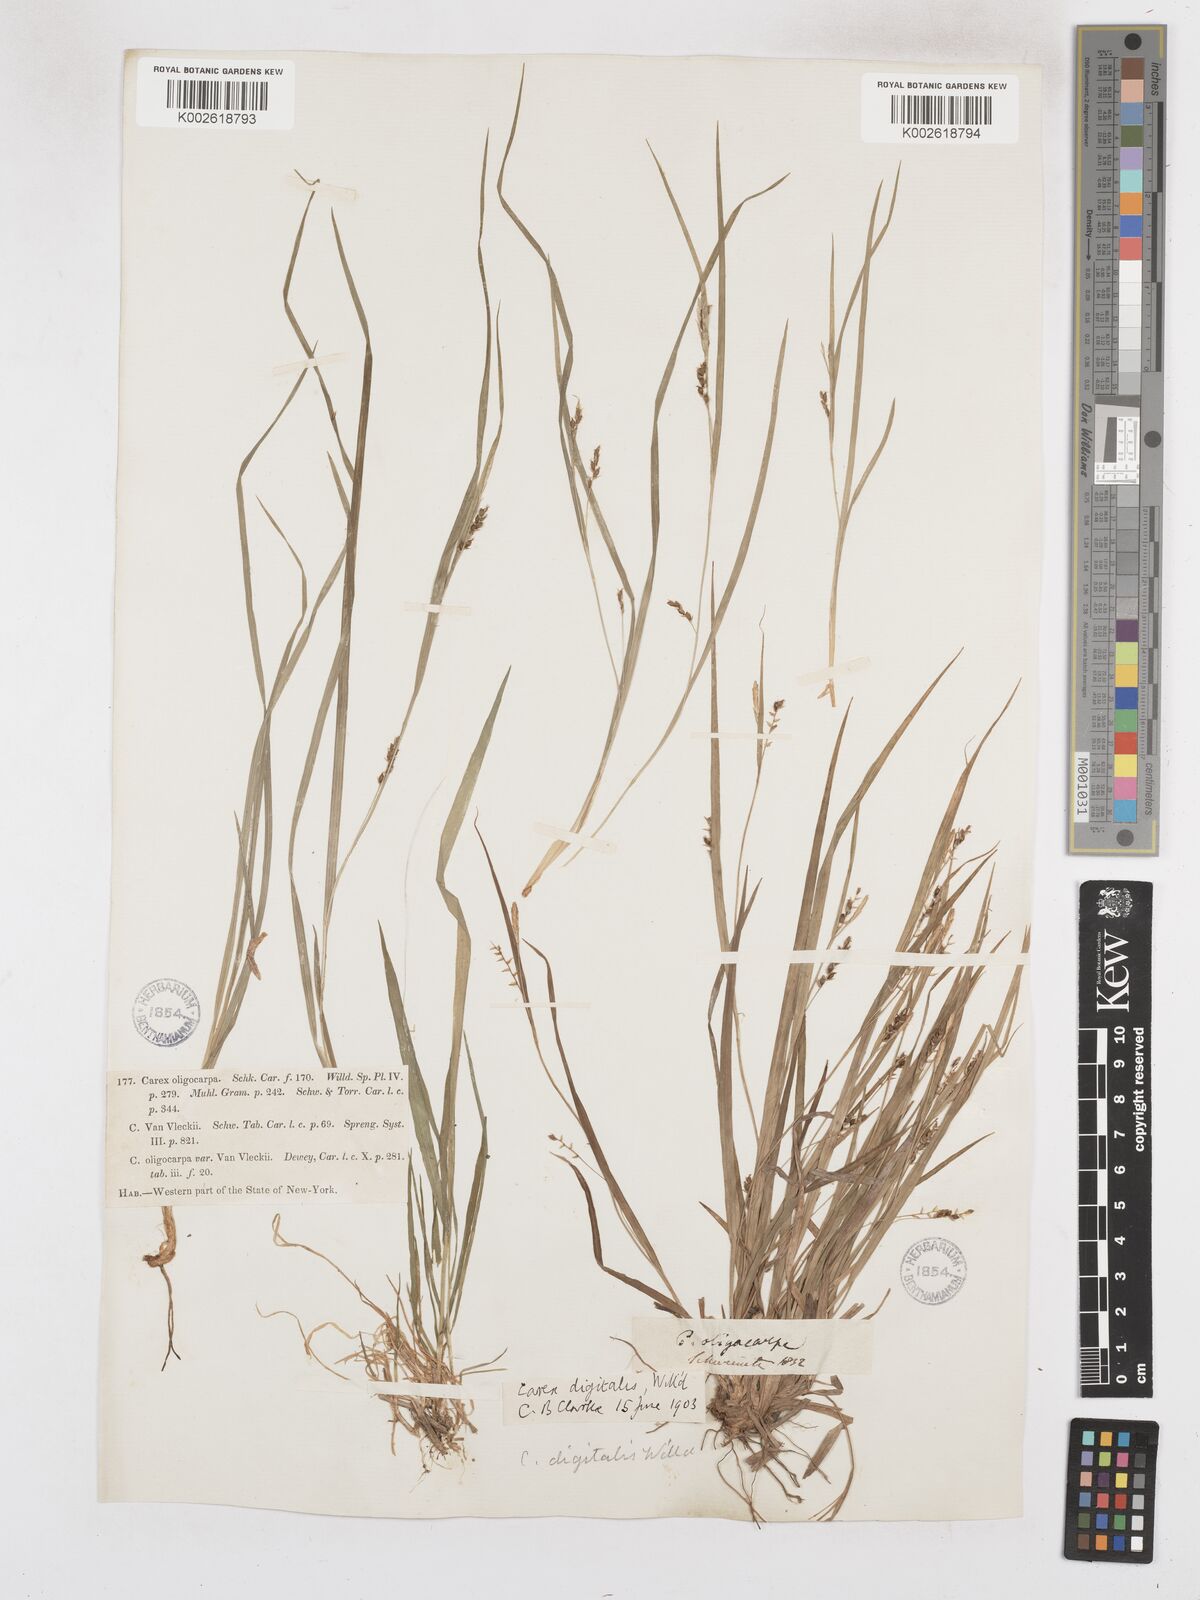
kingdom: Plantae
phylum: Tracheophyta
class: Liliopsida
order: Poales
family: Cyperaceae
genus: Carex
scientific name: Carex digitalis
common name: Slender wood sedge
